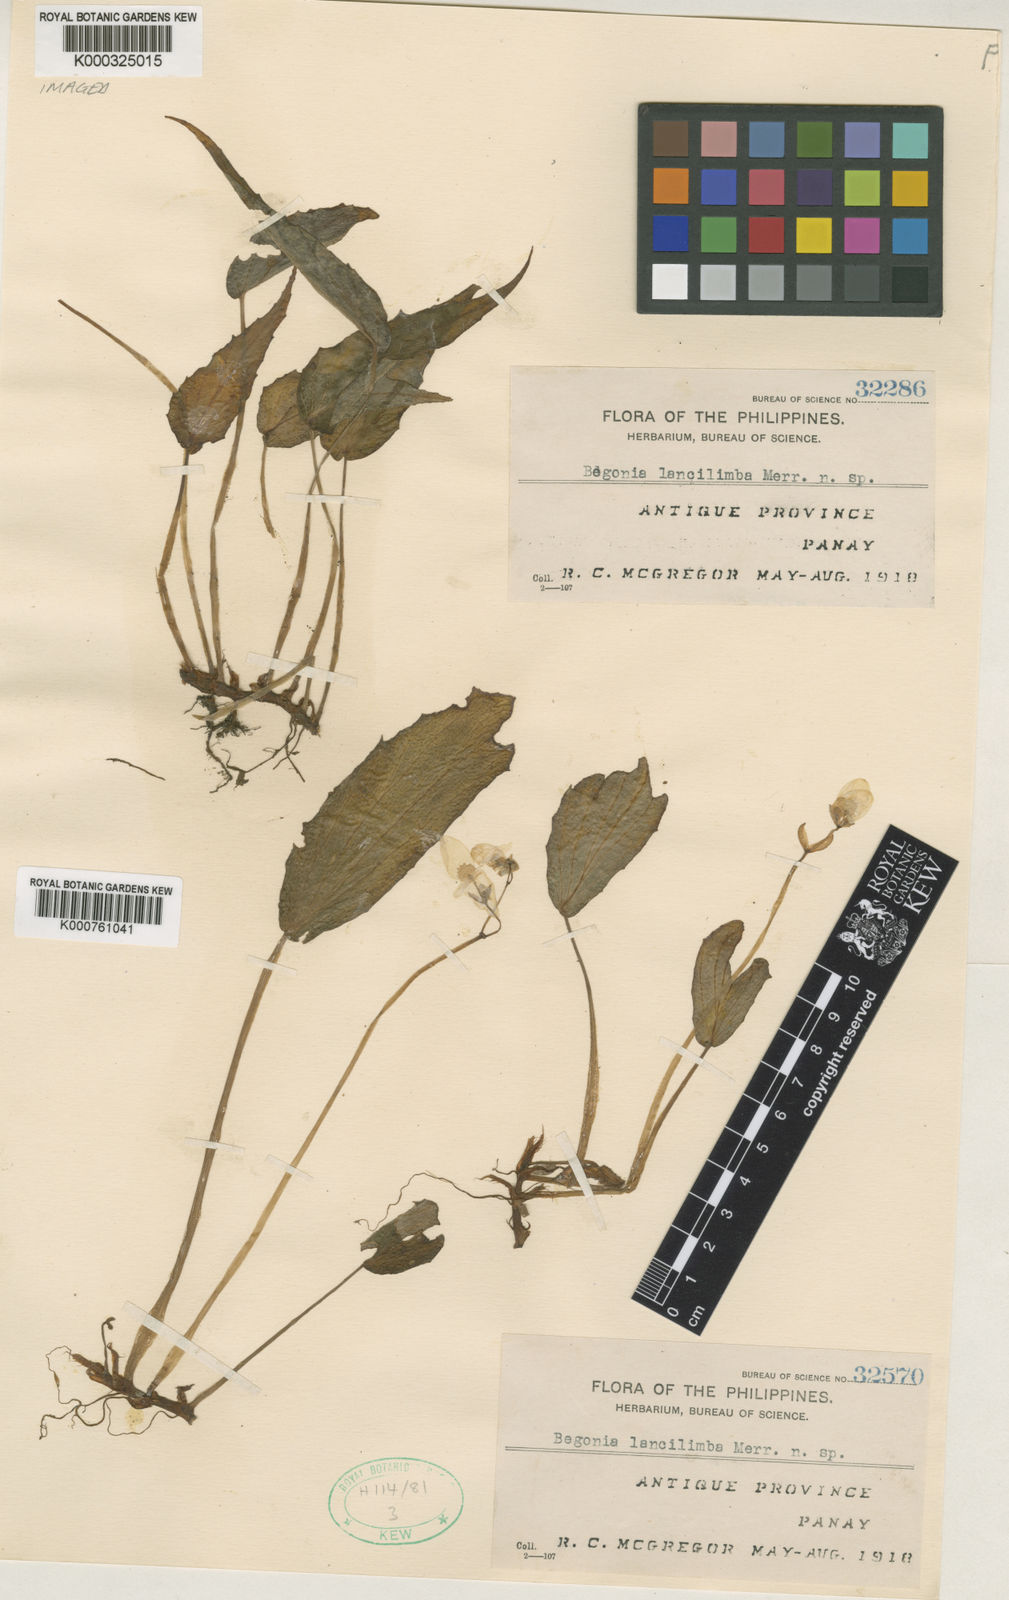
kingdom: Plantae
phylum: Tracheophyta
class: Magnoliopsida
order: Cucurbitales
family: Begoniaceae
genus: Begonia
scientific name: Begonia lancilimba
